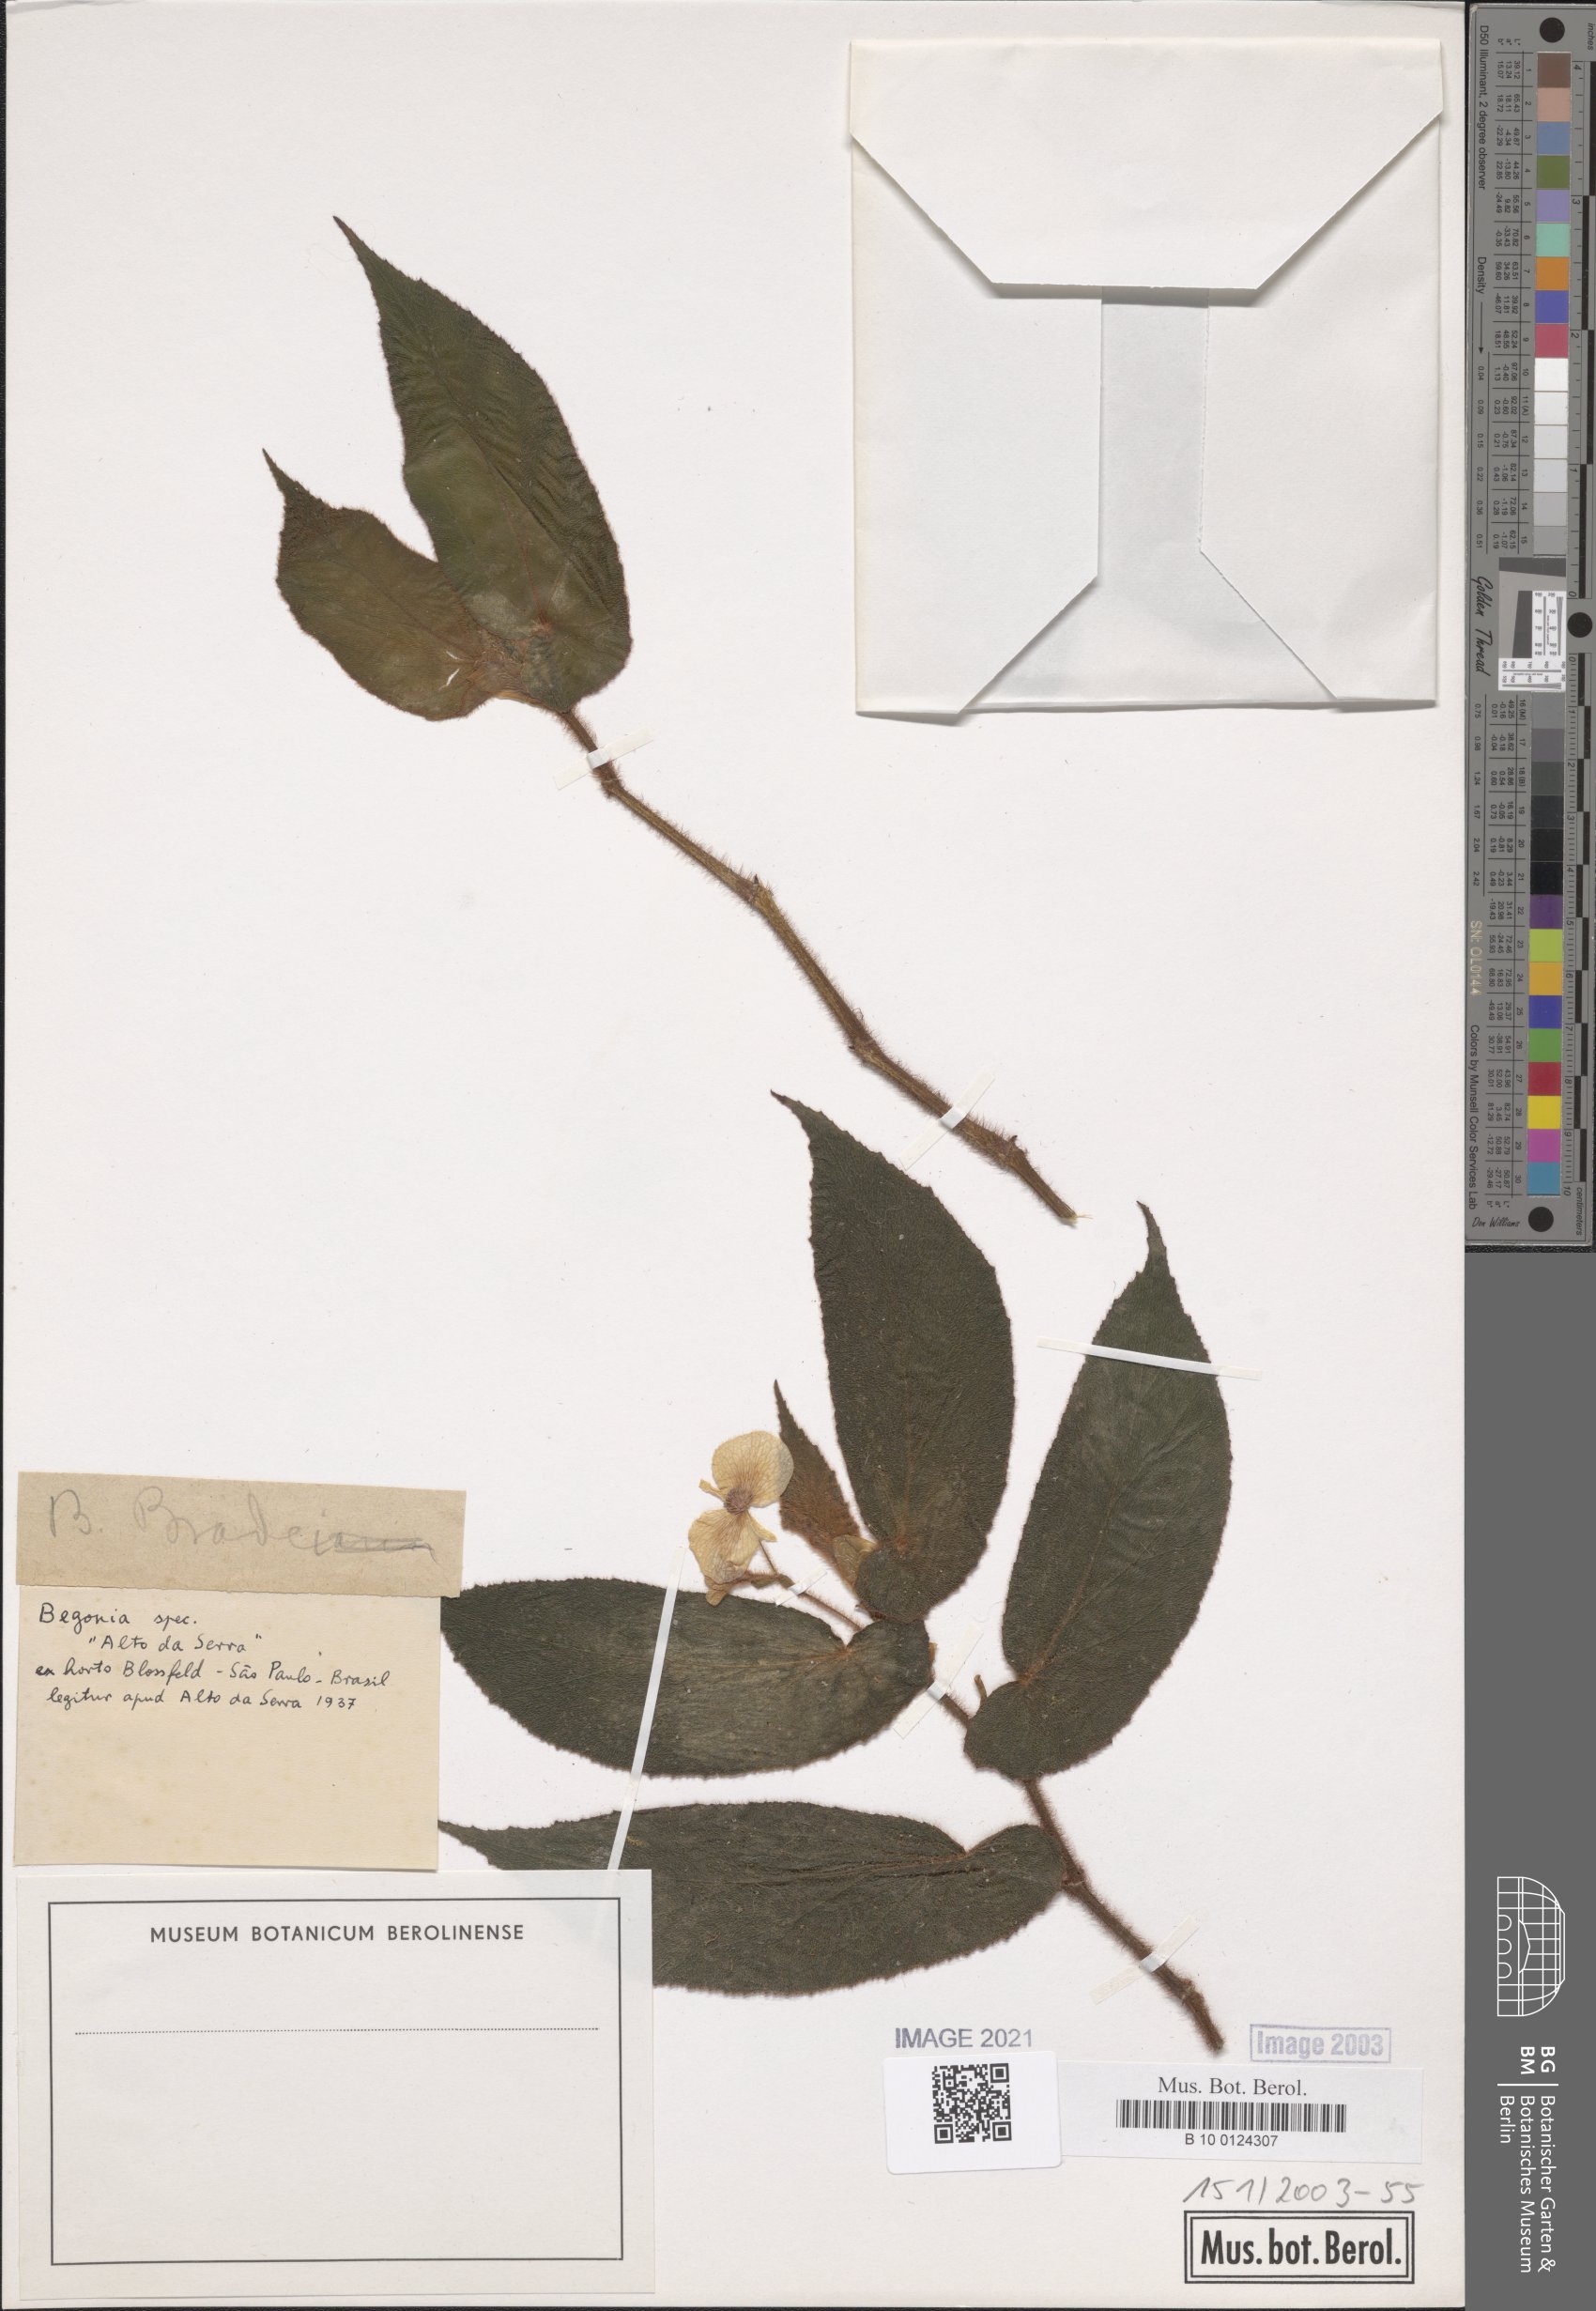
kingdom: Plantae
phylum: Tracheophyta
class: Magnoliopsida
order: Cucurbitales
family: Begoniaceae
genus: Begonia
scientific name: Begonia bradei
